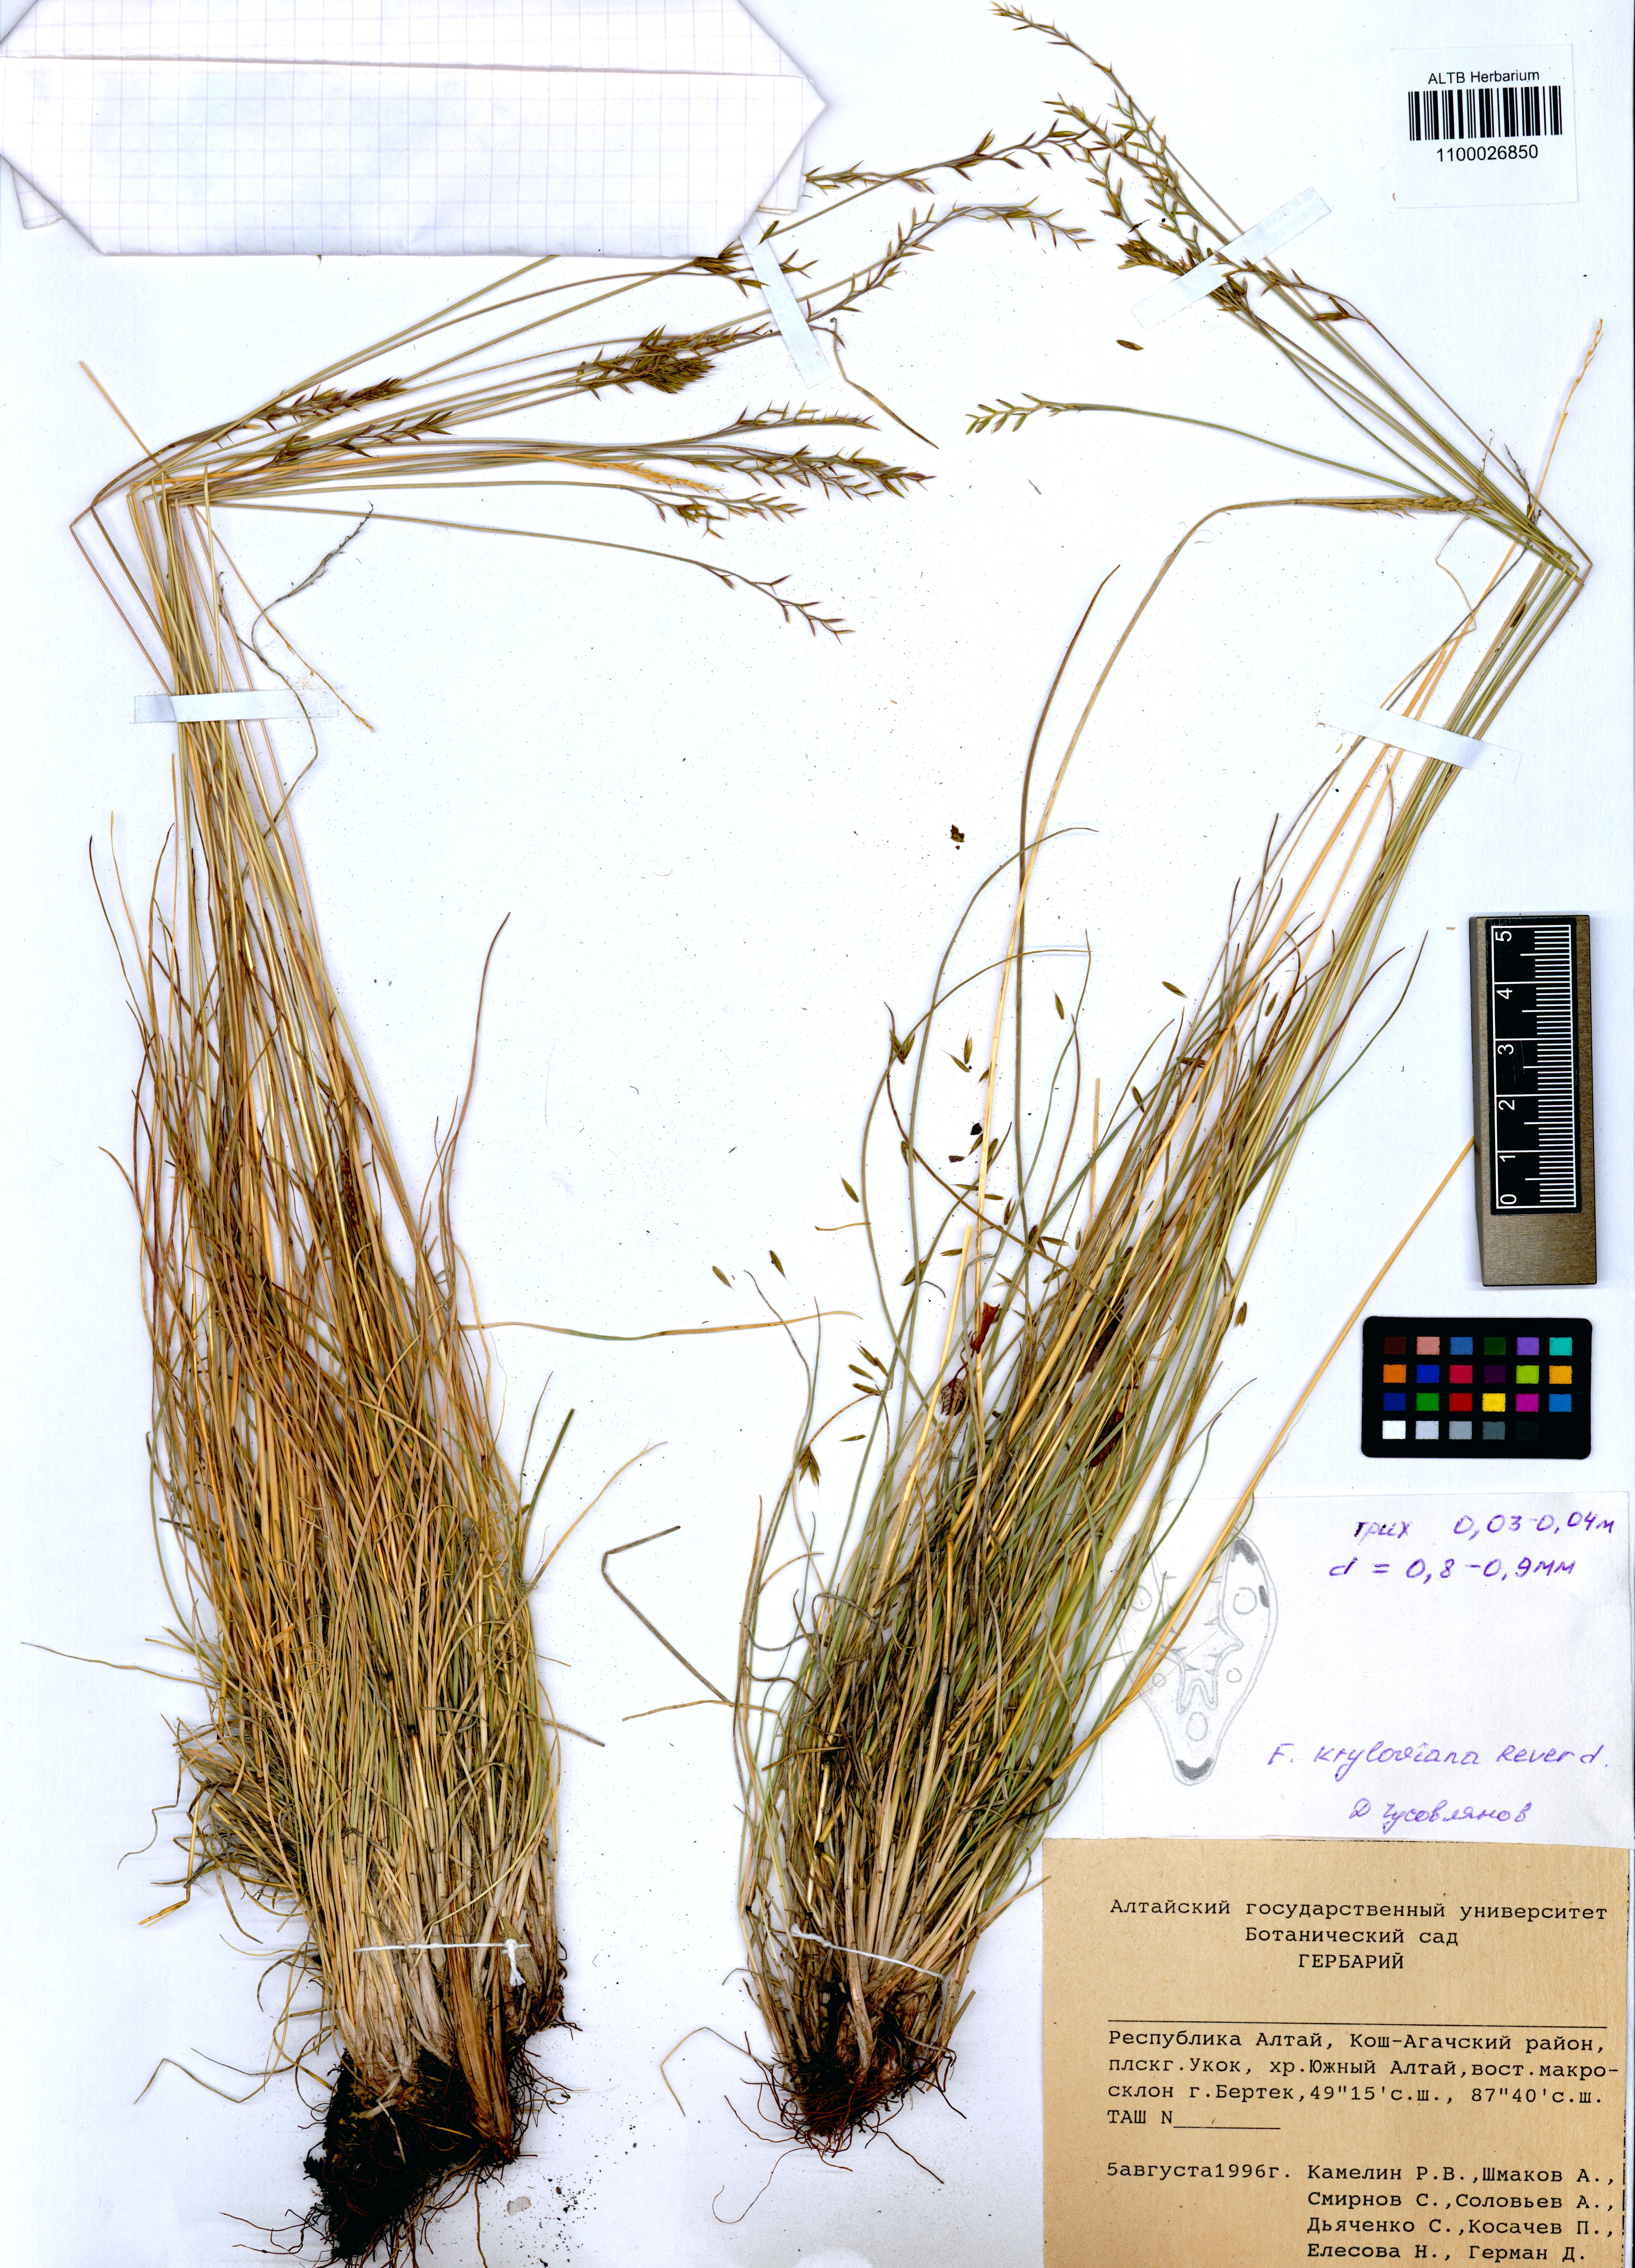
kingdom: Plantae
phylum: Tracheophyta
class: Liliopsida
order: Poales
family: Poaceae
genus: Festuca
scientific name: Festuca kryloviana
